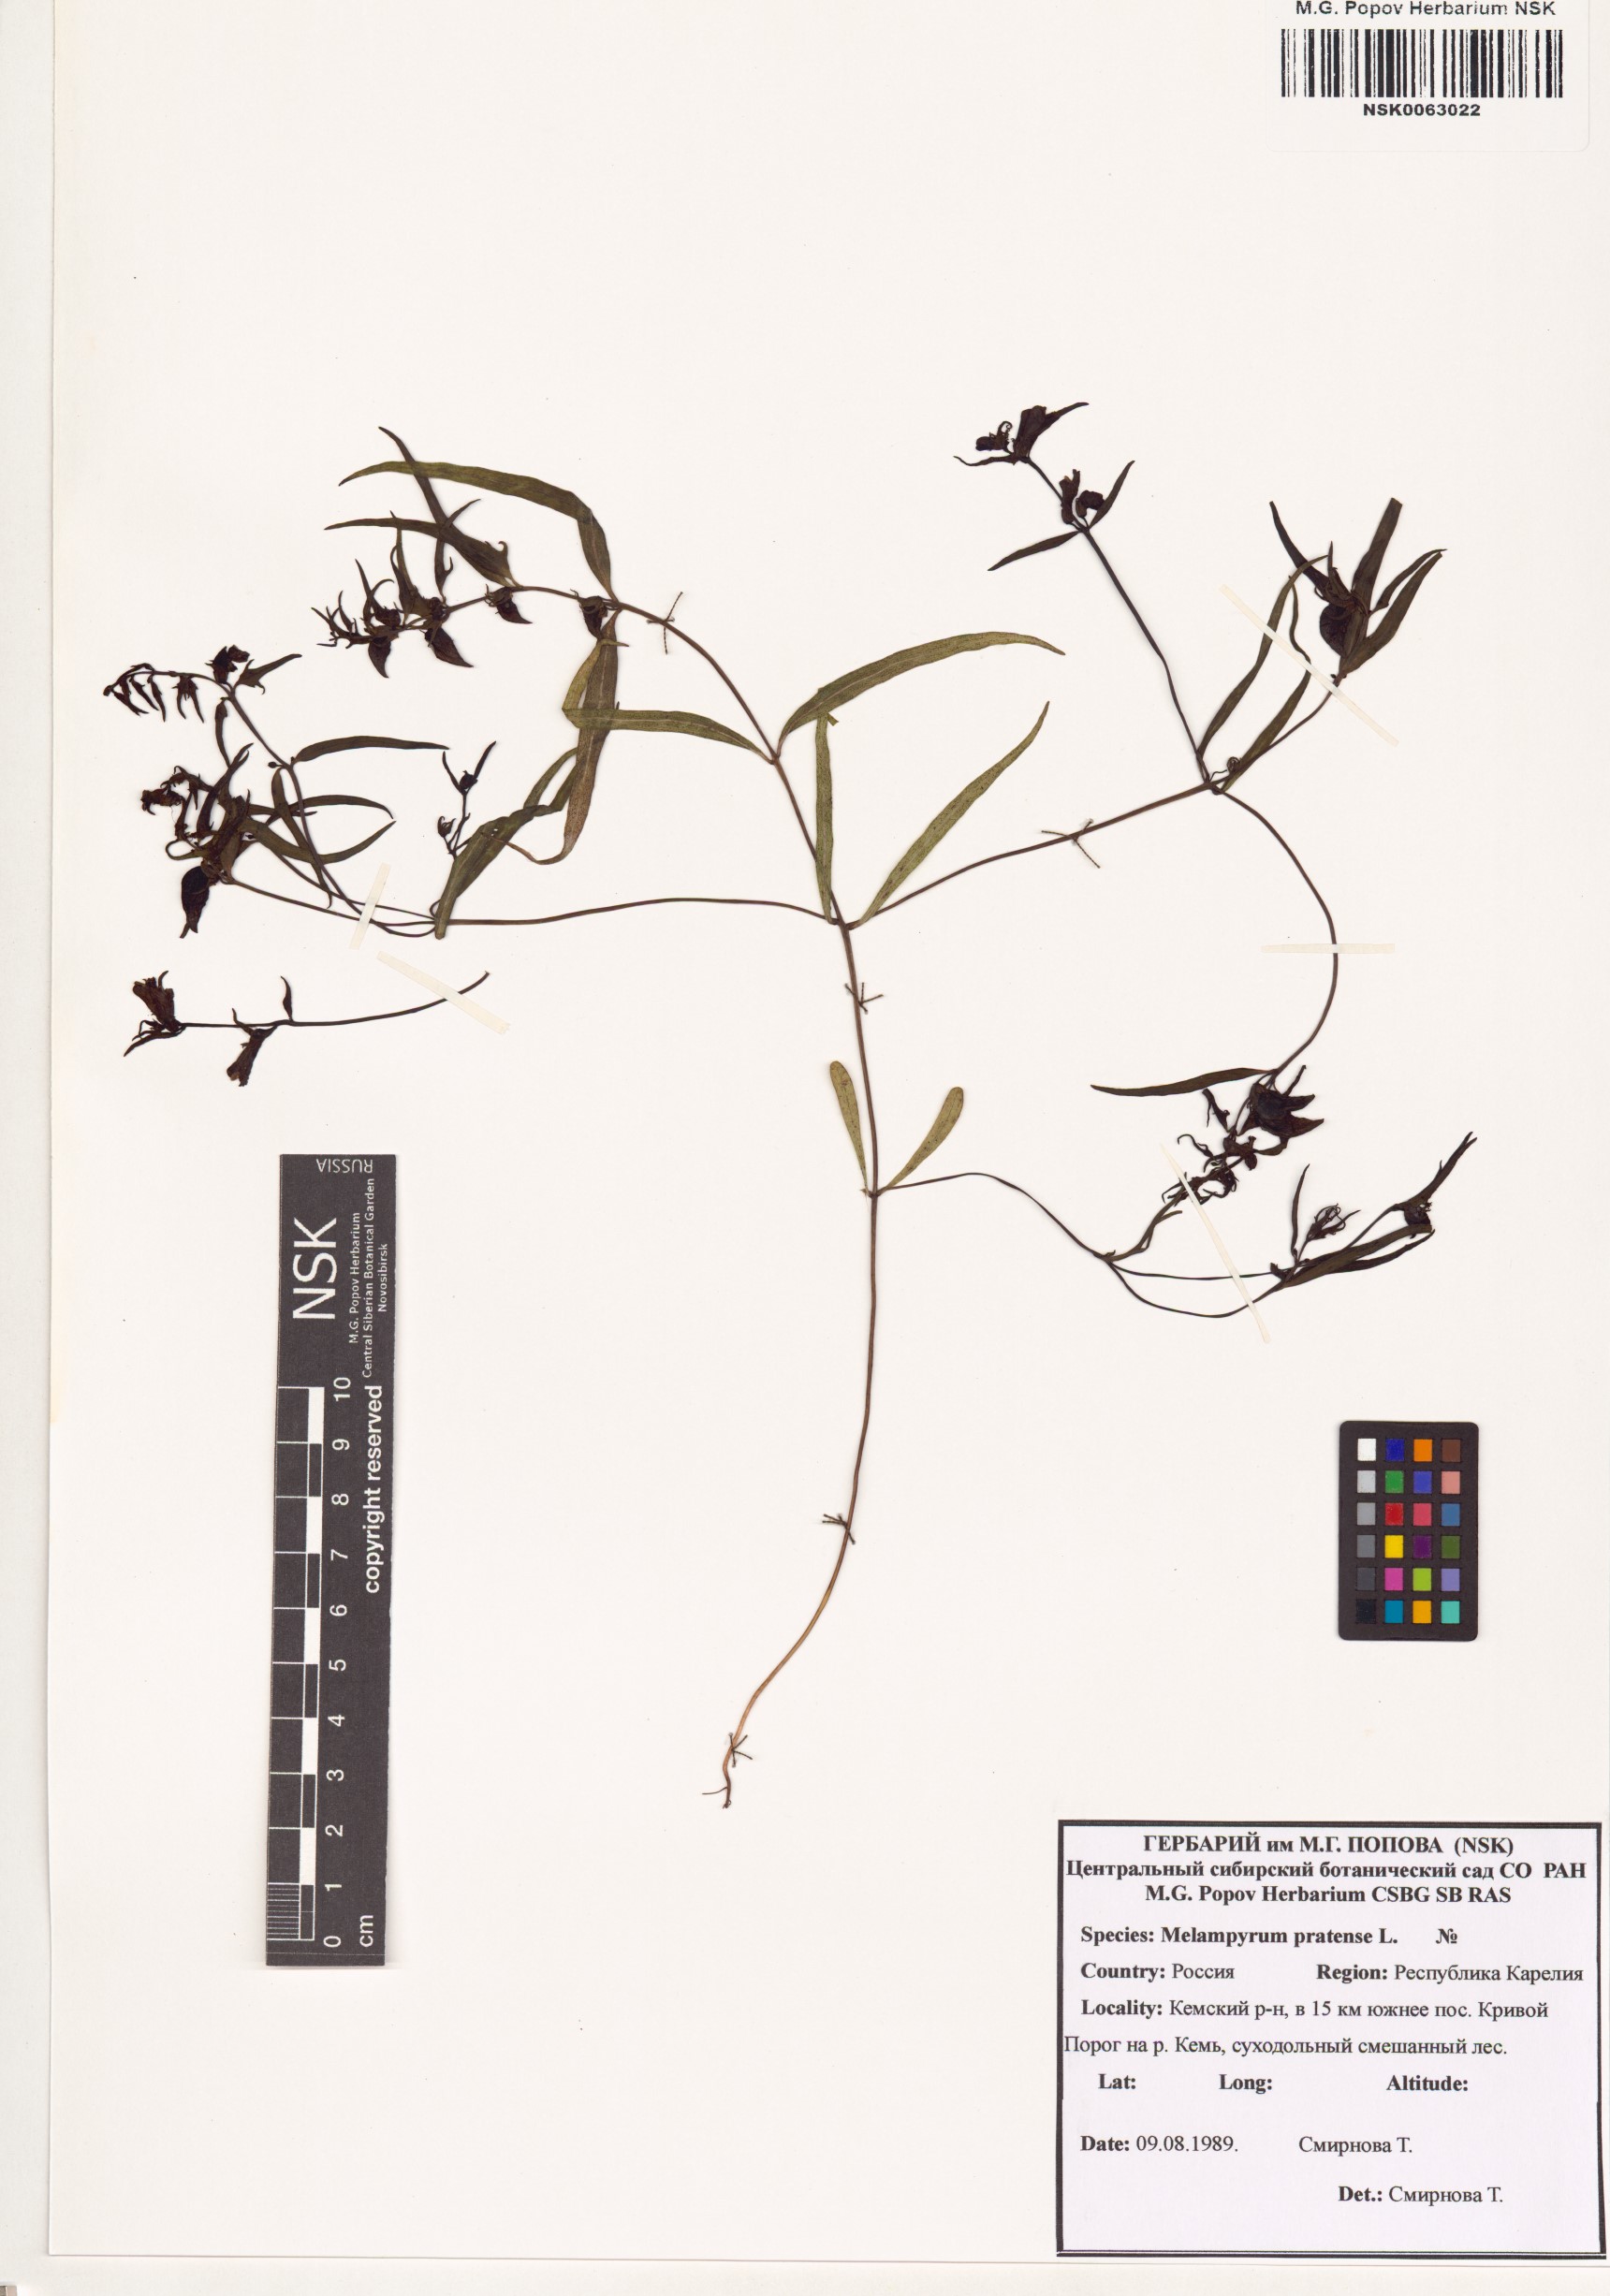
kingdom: Plantae
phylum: Tracheophyta
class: Magnoliopsida
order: Lamiales
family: Orobanchaceae
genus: Melampyrum
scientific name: Melampyrum pratense
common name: Common cow-wheat
